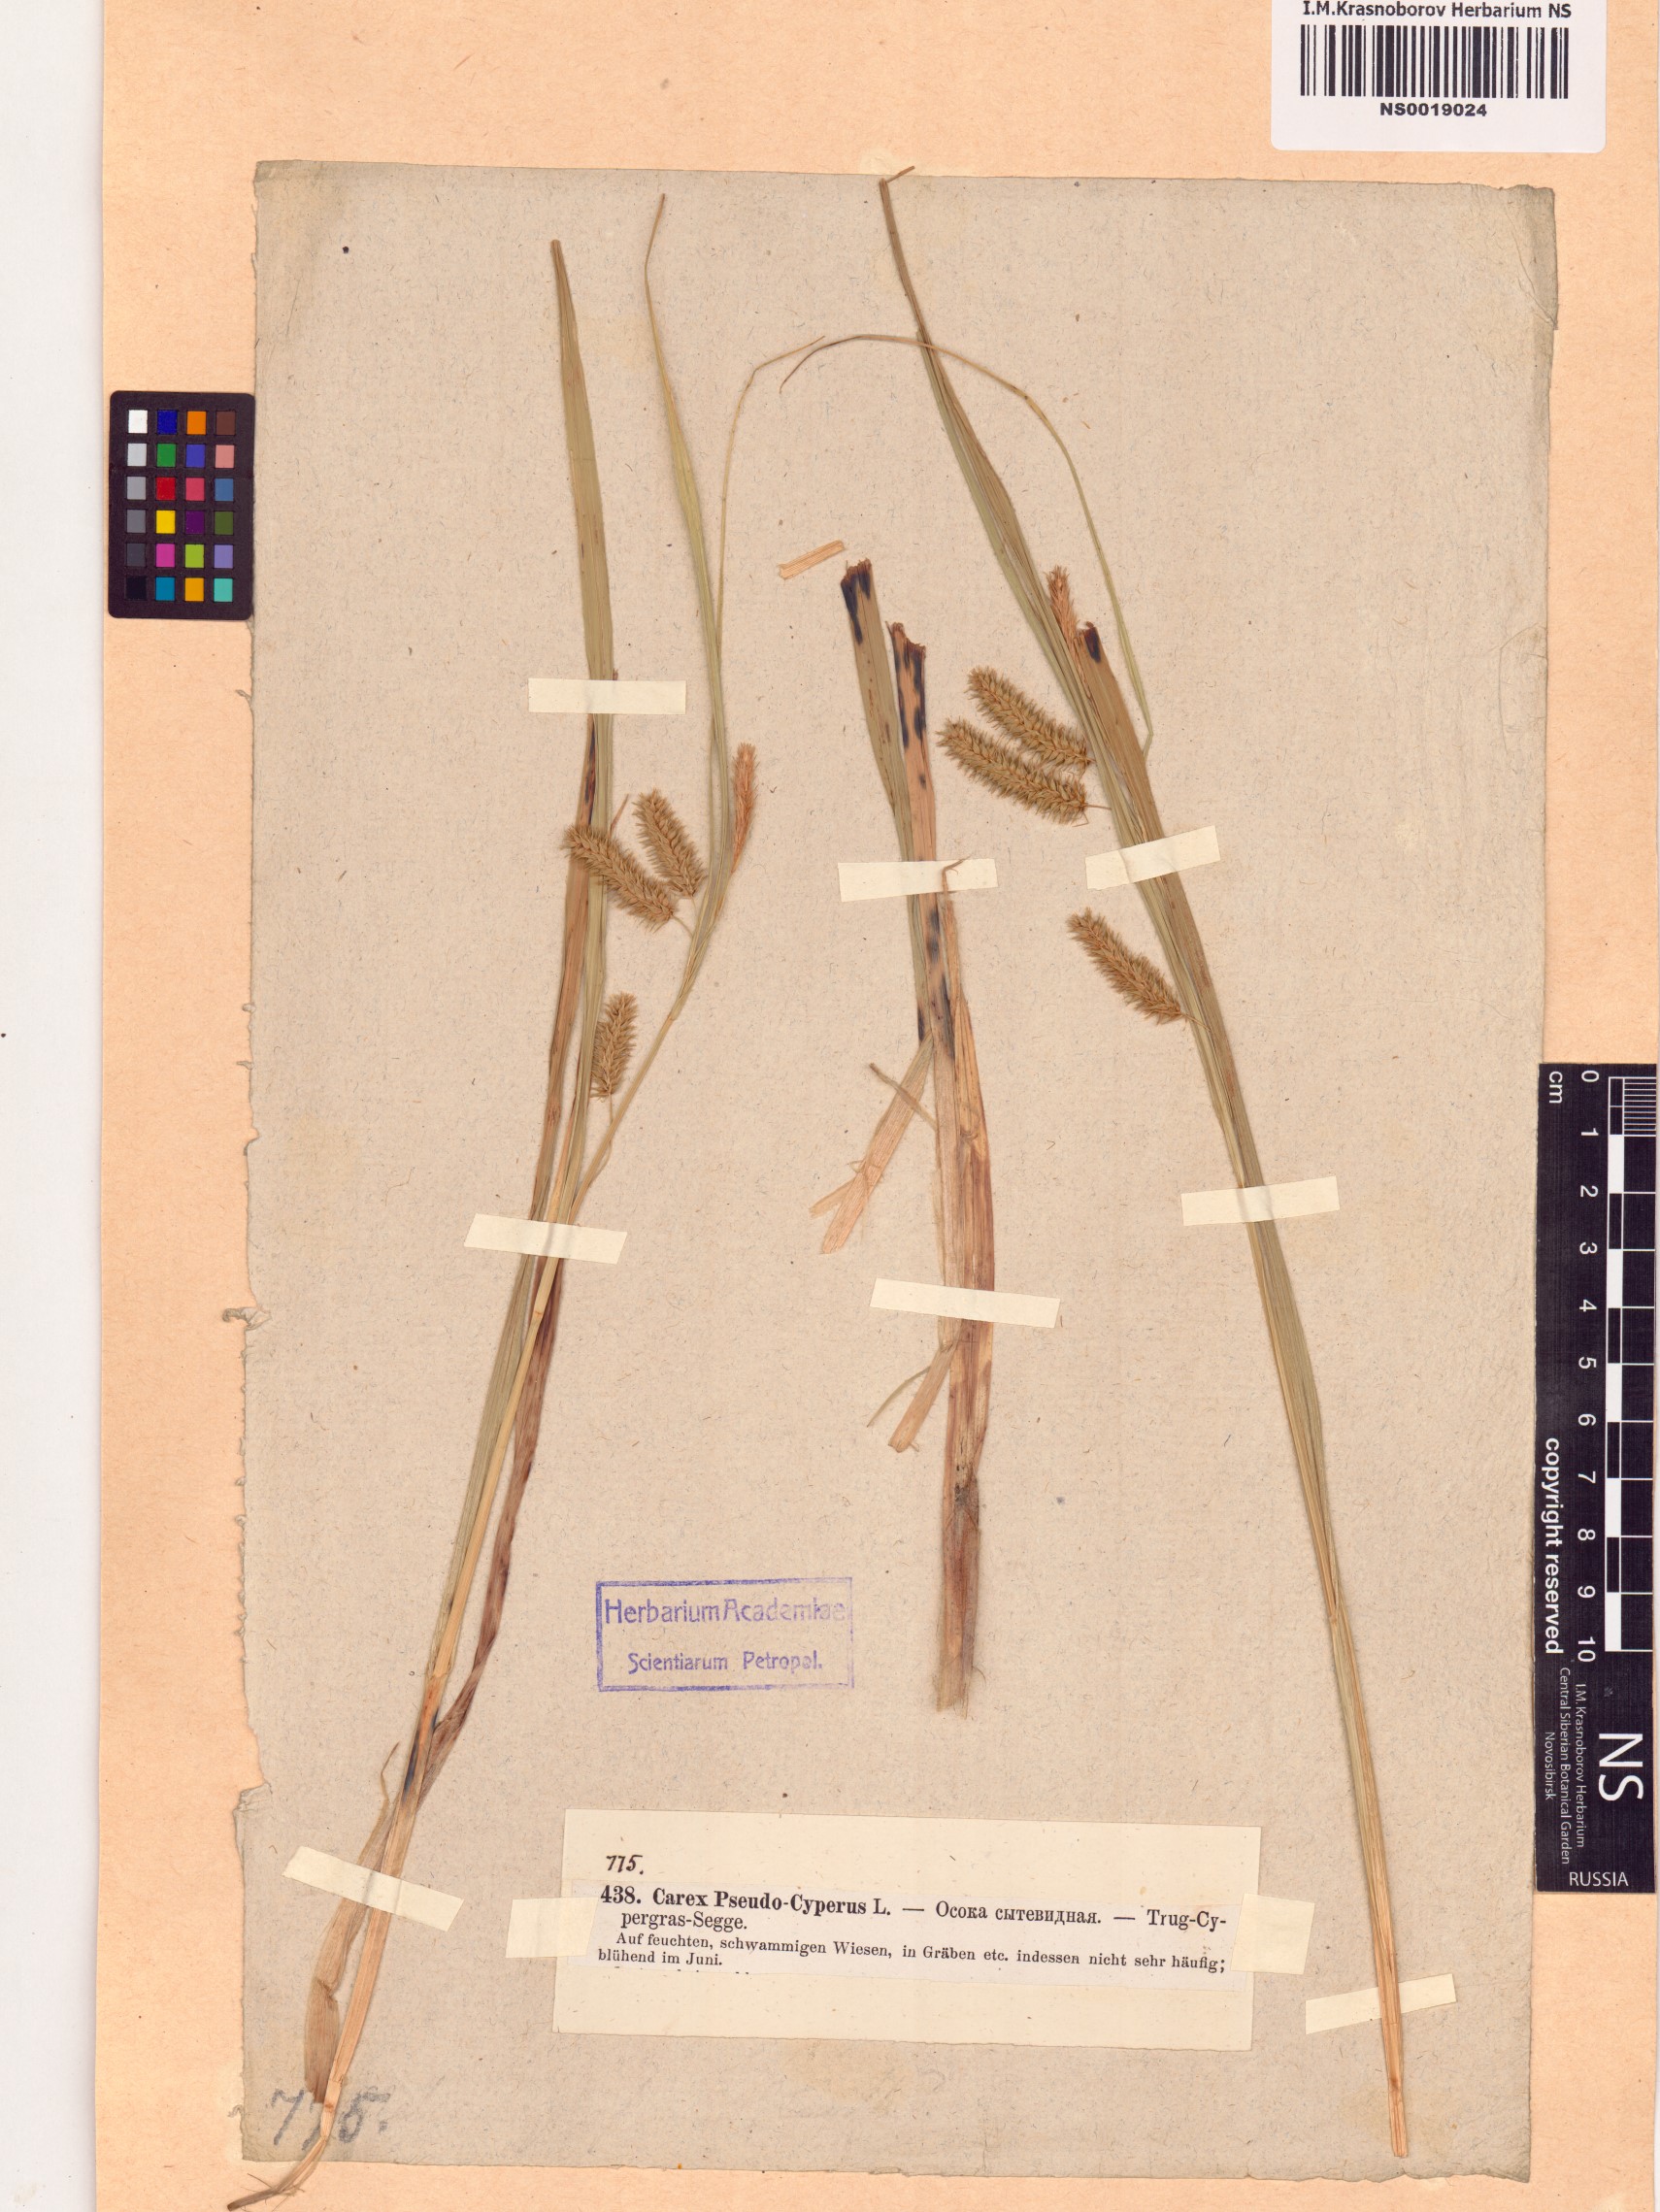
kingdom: Plantae
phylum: Tracheophyta
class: Liliopsida
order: Poales
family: Cyperaceae
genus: Carex
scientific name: Carex pseudocyperus
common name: Cyperus sedge
